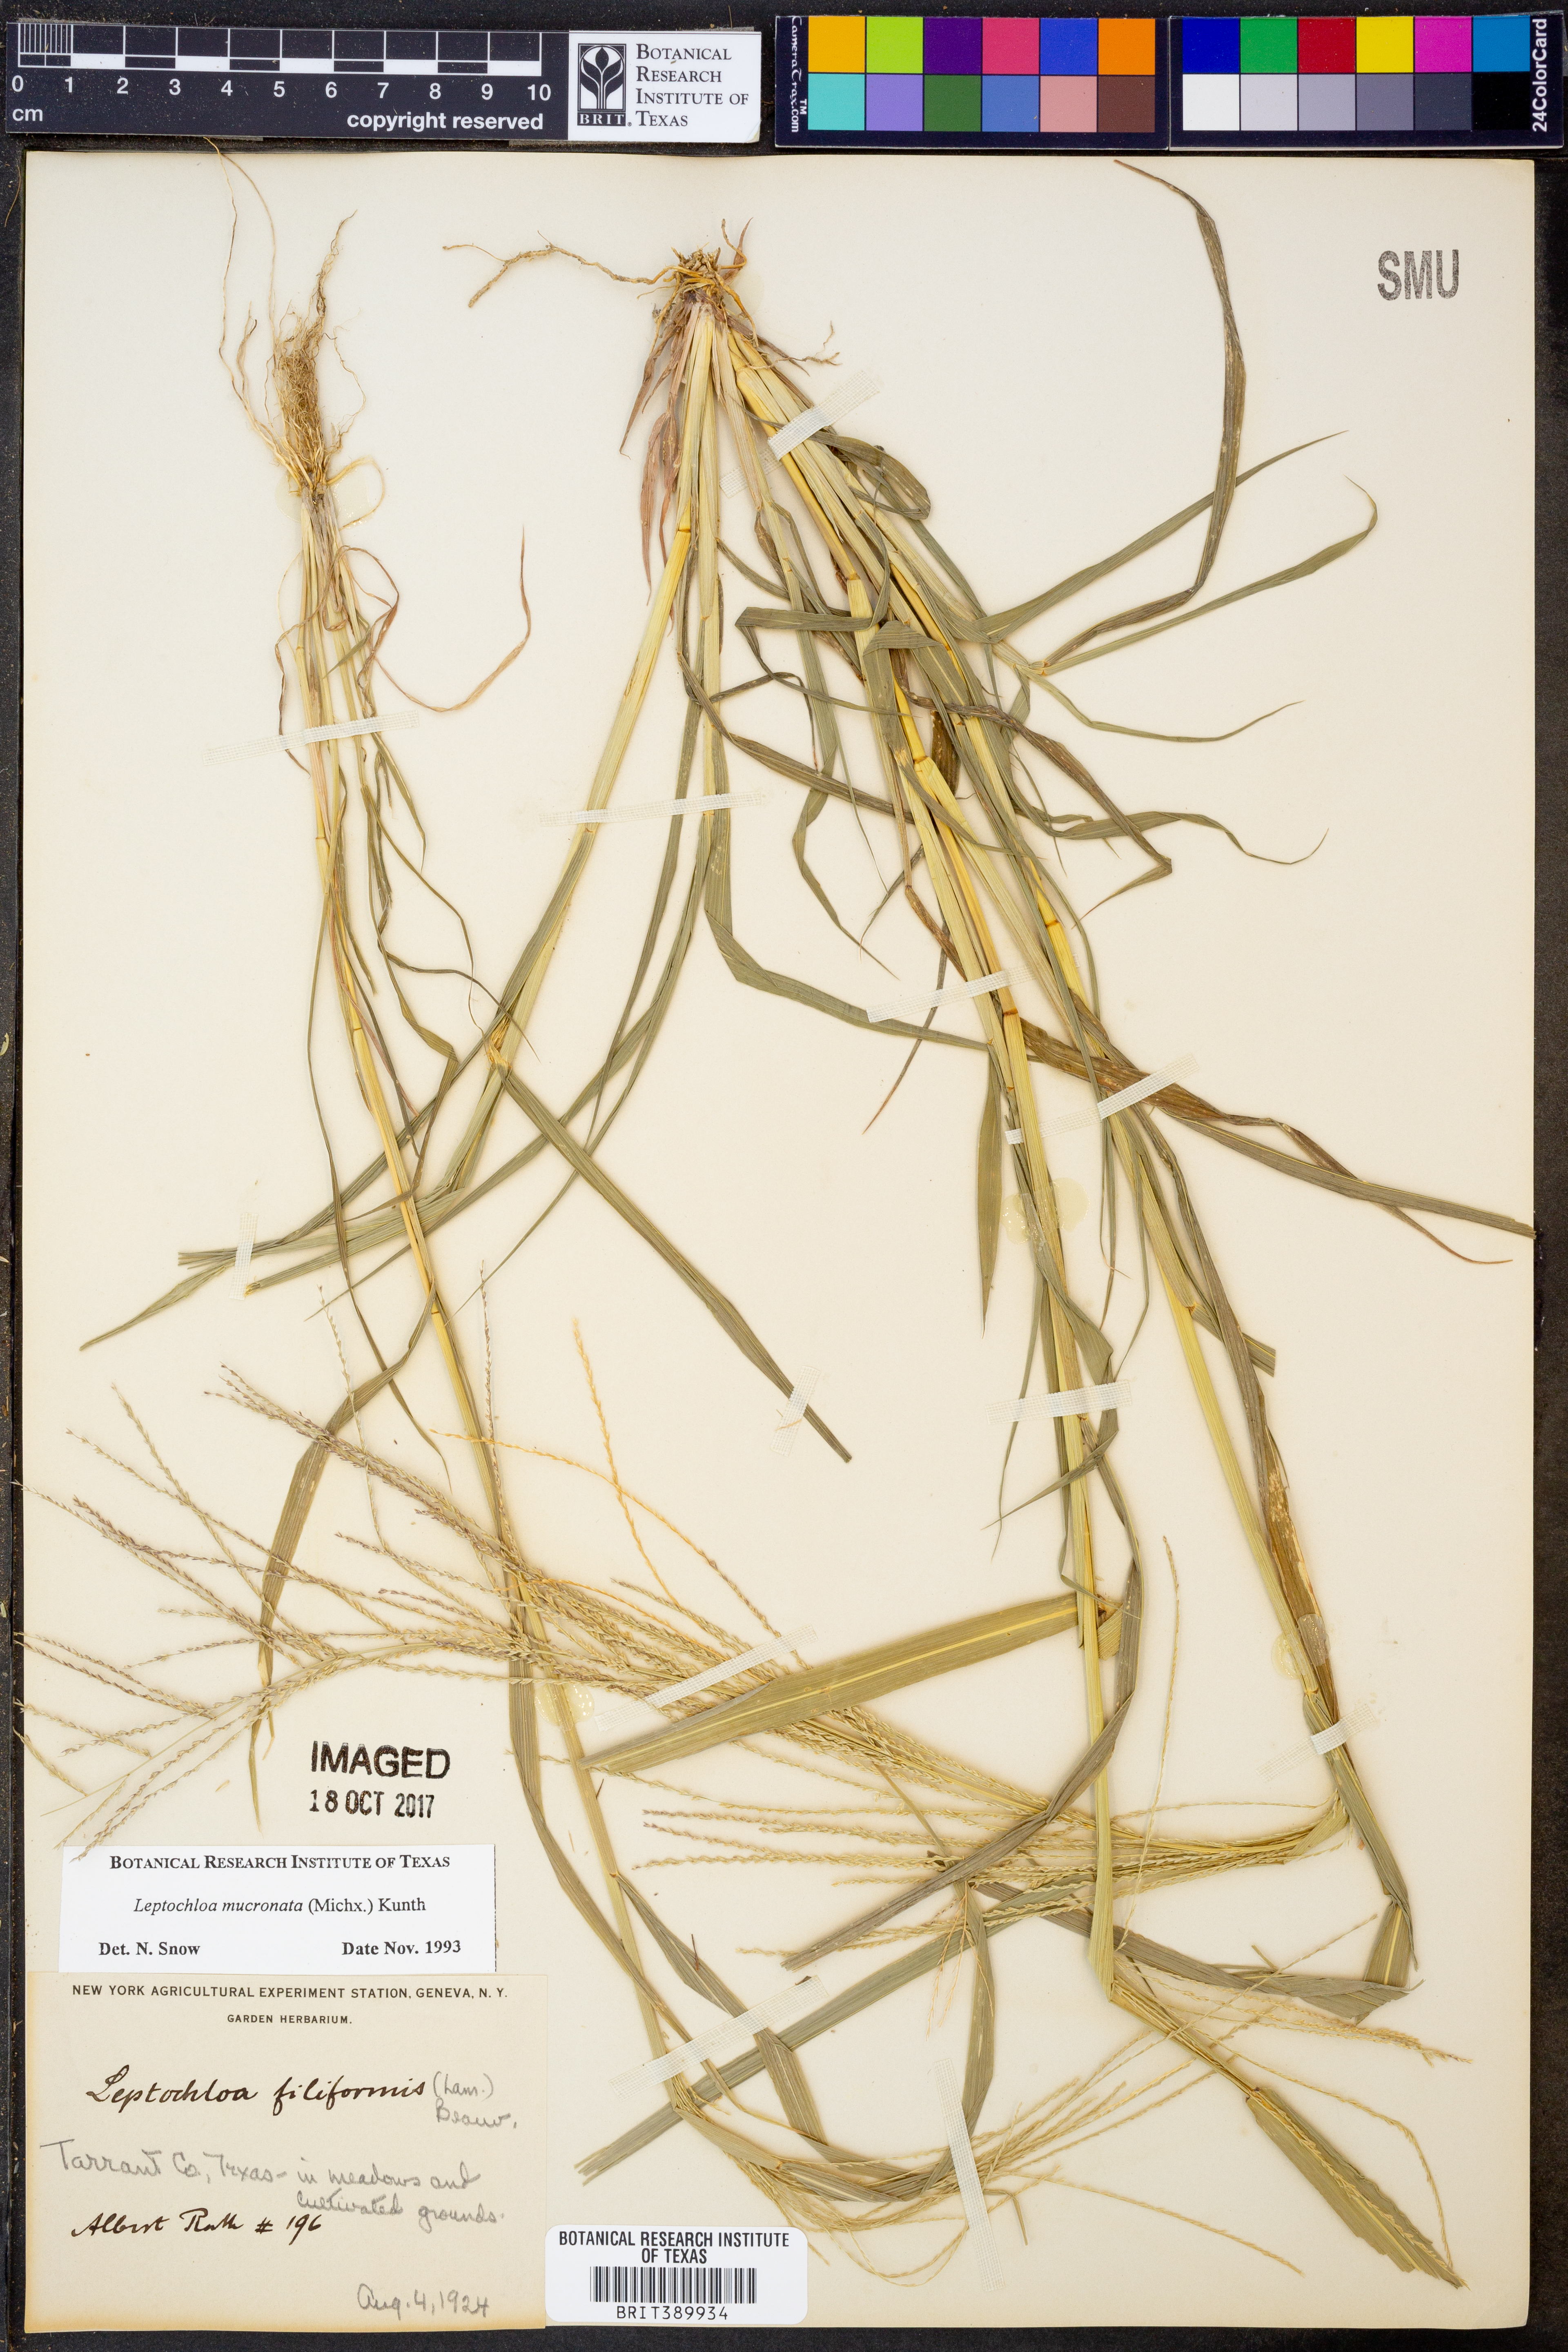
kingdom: Plantae
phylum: Tracheophyta
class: Liliopsida
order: Poales
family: Poaceae
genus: Leptochloa
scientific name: Leptochloa mucronata
